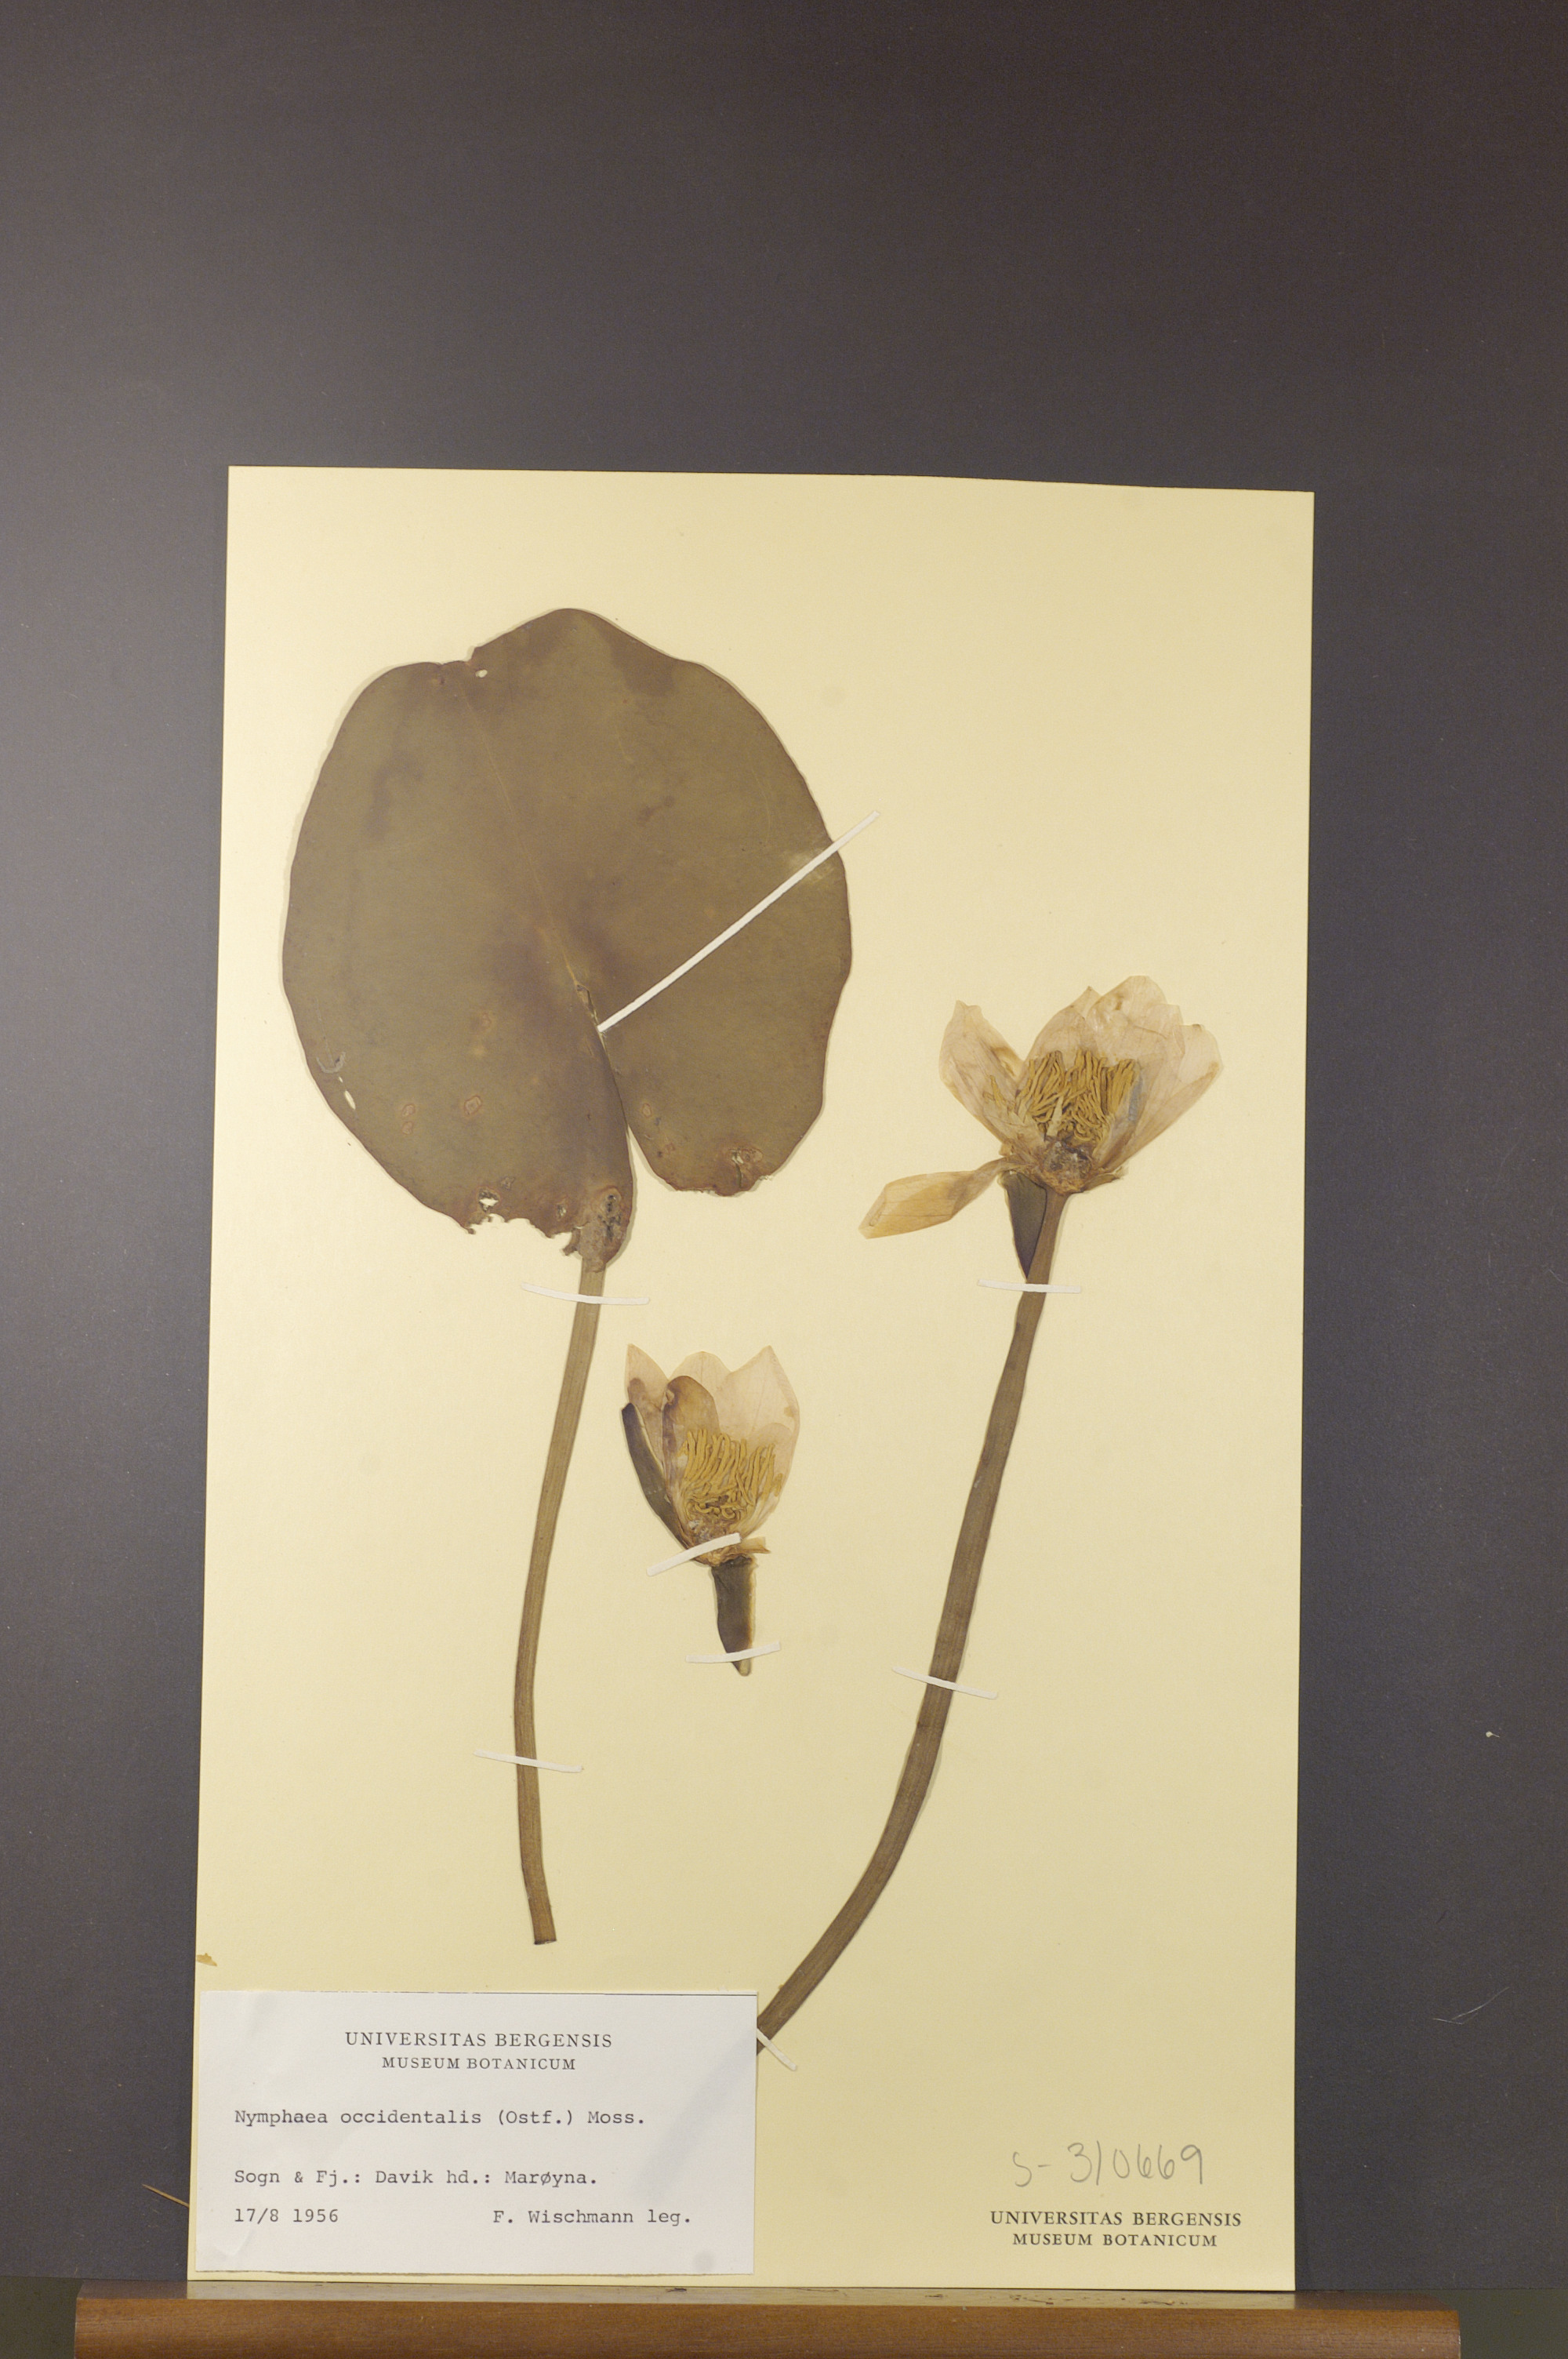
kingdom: Plantae
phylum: Tracheophyta
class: Magnoliopsida
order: Nymphaeales
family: Nymphaeaceae
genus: Nymphaea
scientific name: Nymphaea alba
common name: White water-lily
